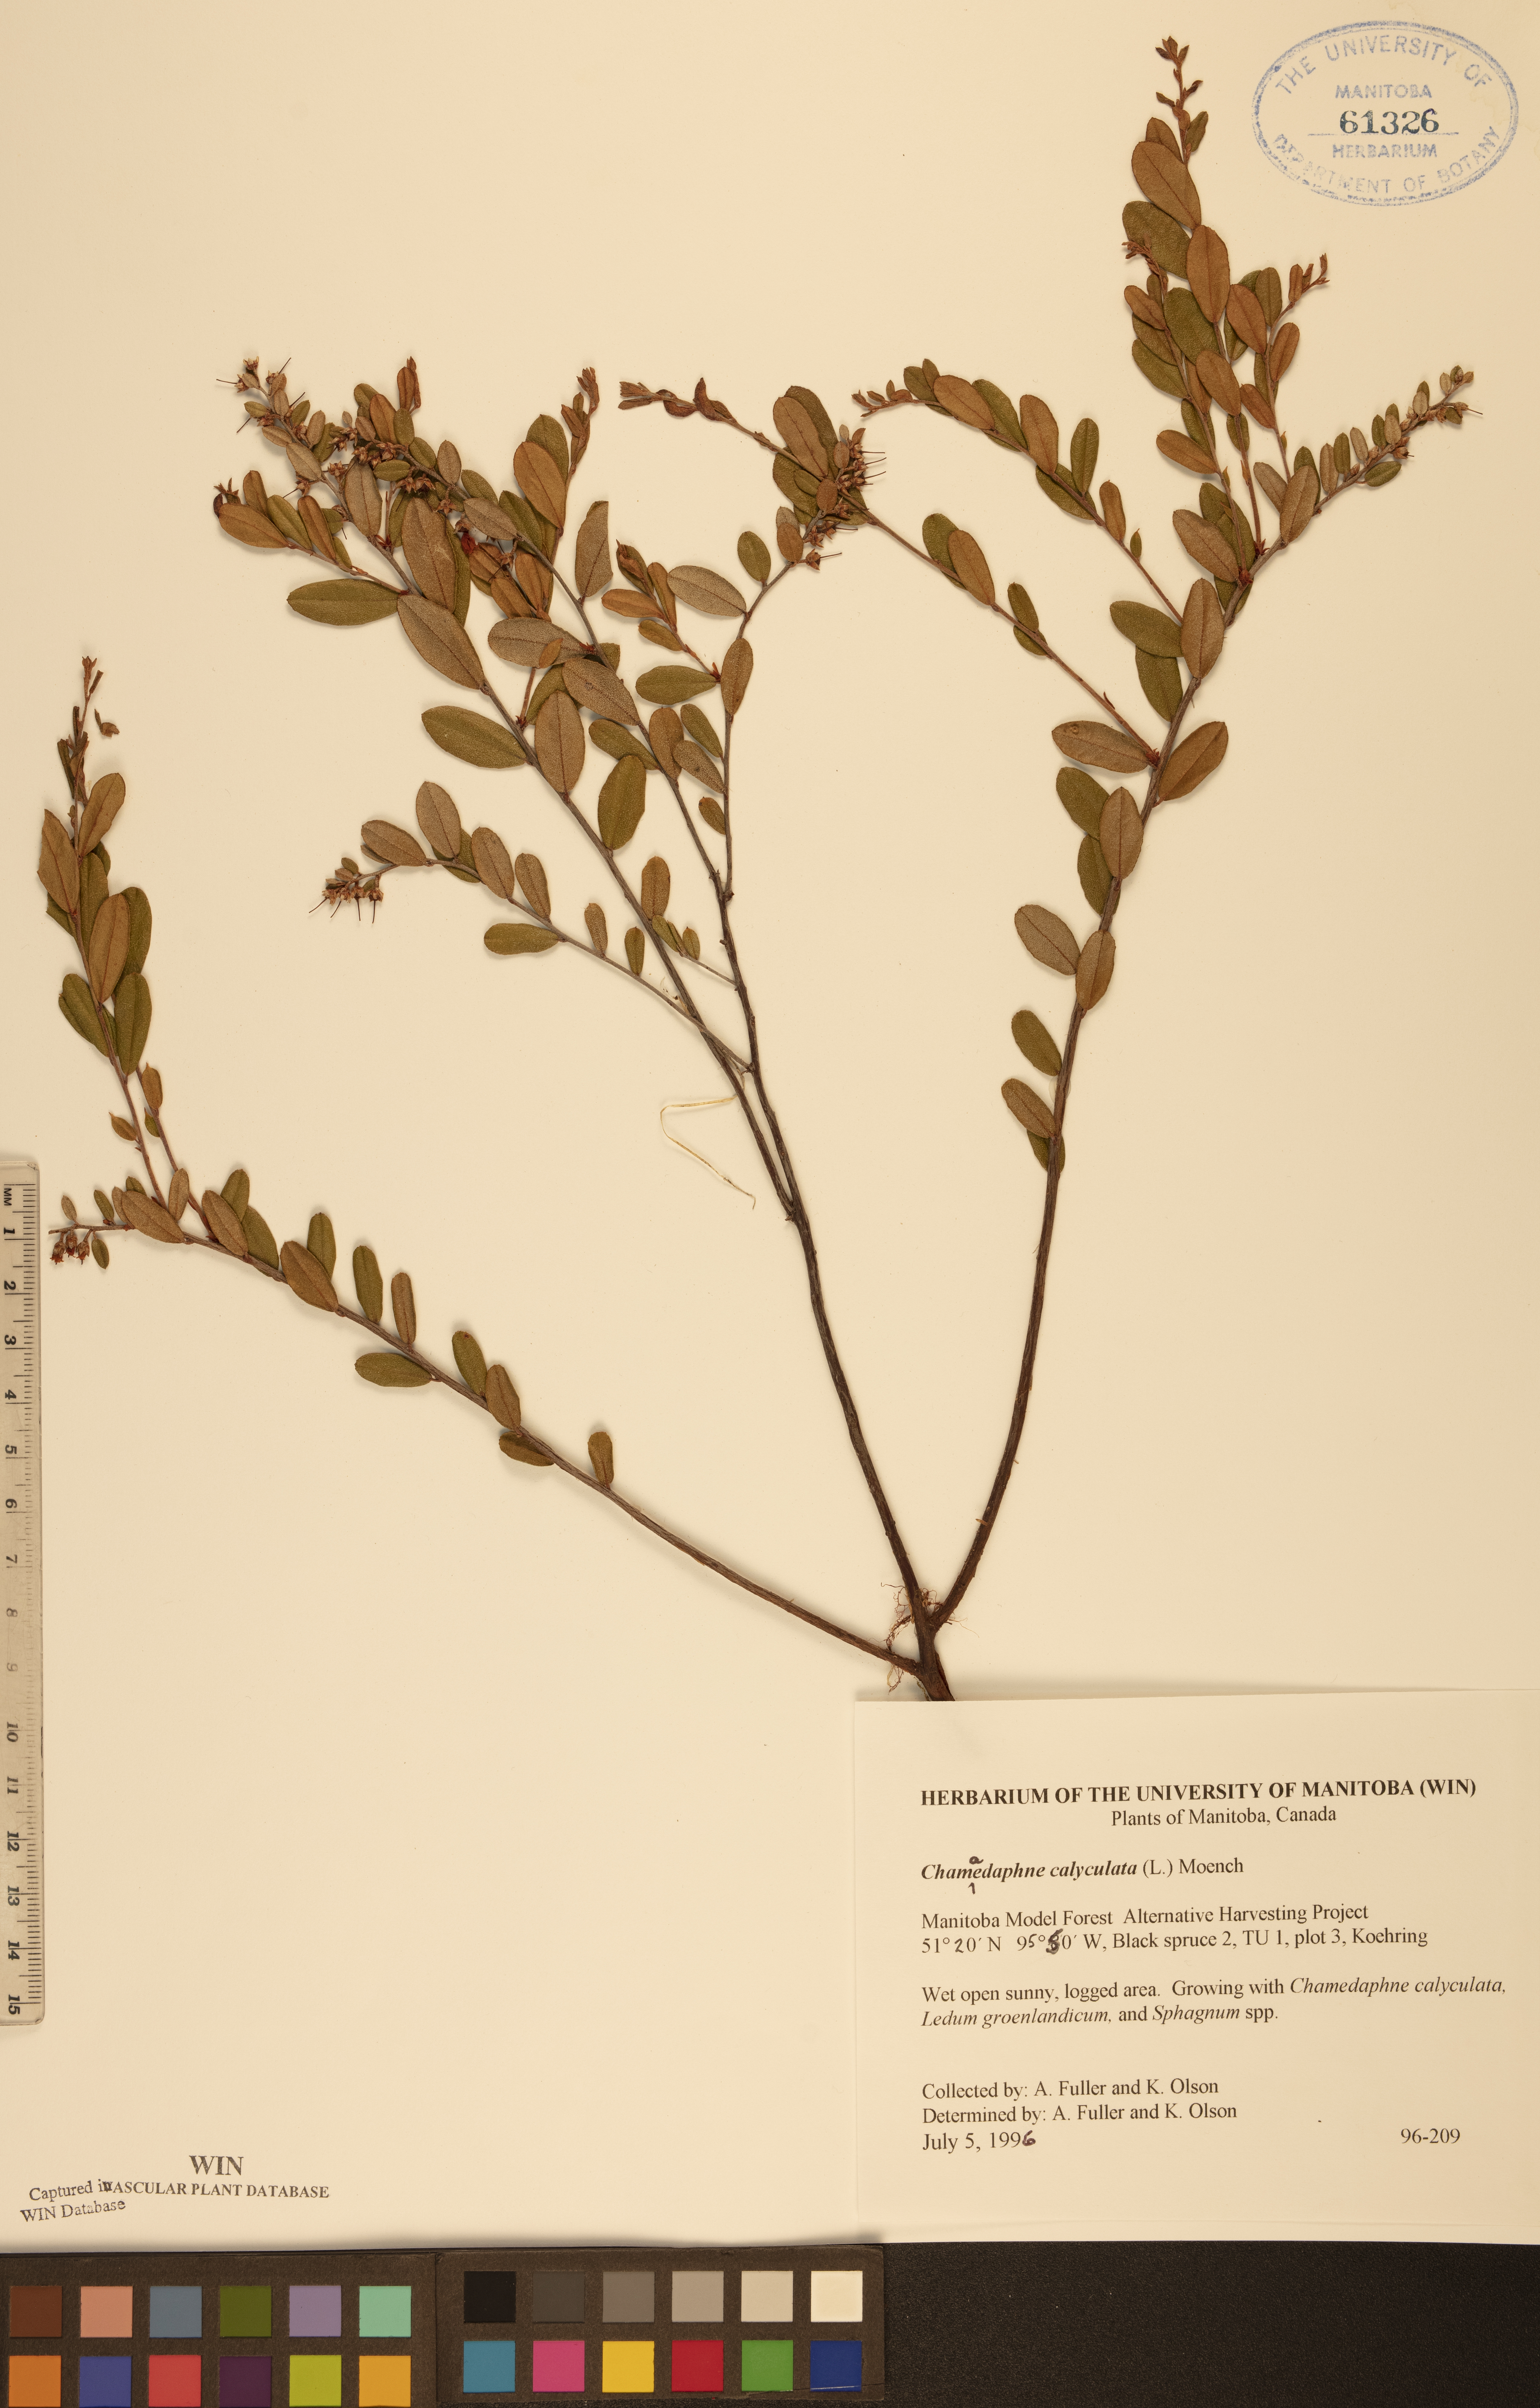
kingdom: Plantae
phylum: Tracheophyta
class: Magnoliopsida
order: Ericales
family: Ericaceae
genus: Chamaedaphne
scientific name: Chamaedaphne calyculata
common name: Leatherleaf
